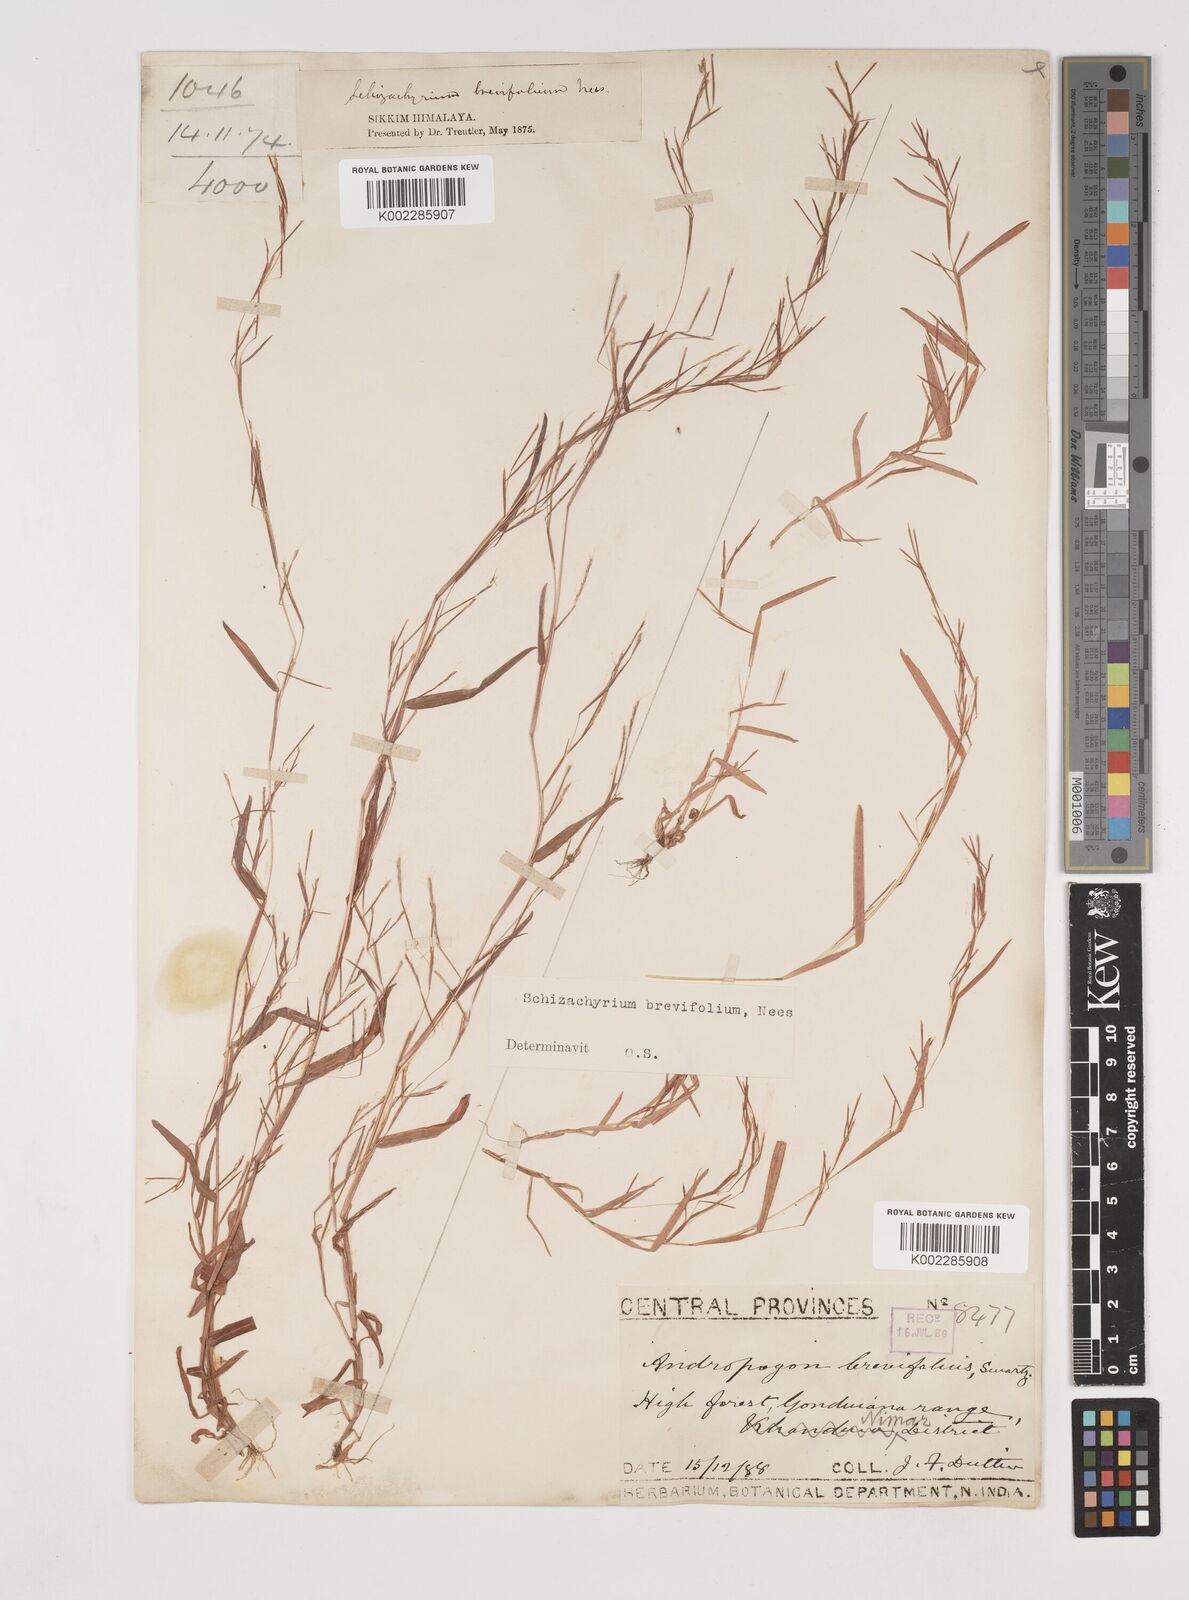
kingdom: Plantae
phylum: Tracheophyta
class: Liliopsida
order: Poales
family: Poaceae
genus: Schizachyrium
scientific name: Schizachyrium brevifolium
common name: Serillo dulce
